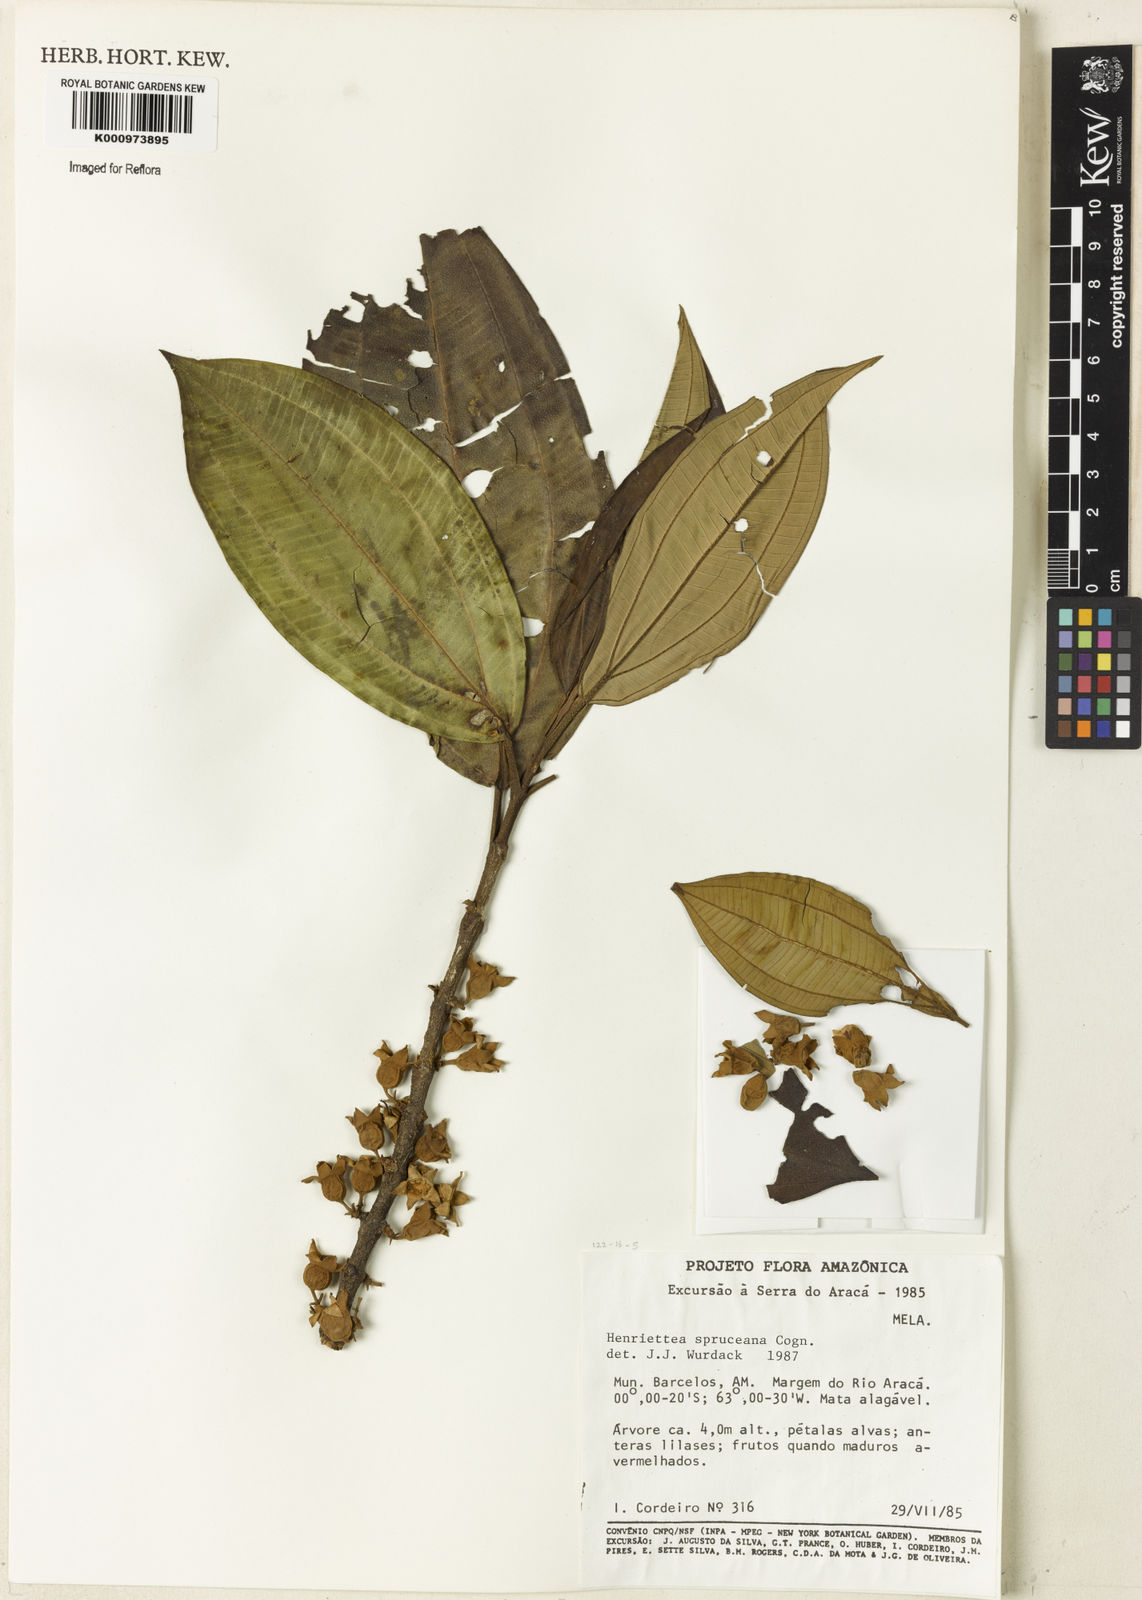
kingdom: Plantae
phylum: Tracheophyta
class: Magnoliopsida
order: Myrtales
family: Melastomataceae
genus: Henriettea
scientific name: Henriettea spruceana
